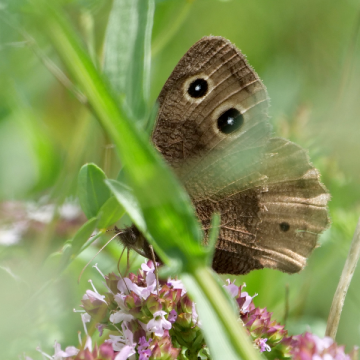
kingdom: Animalia
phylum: Arthropoda
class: Insecta
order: Lepidoptera
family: Nymphalidae
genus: Cercyonis
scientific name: Cercyonis pegala
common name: Common Wood-Nymph
